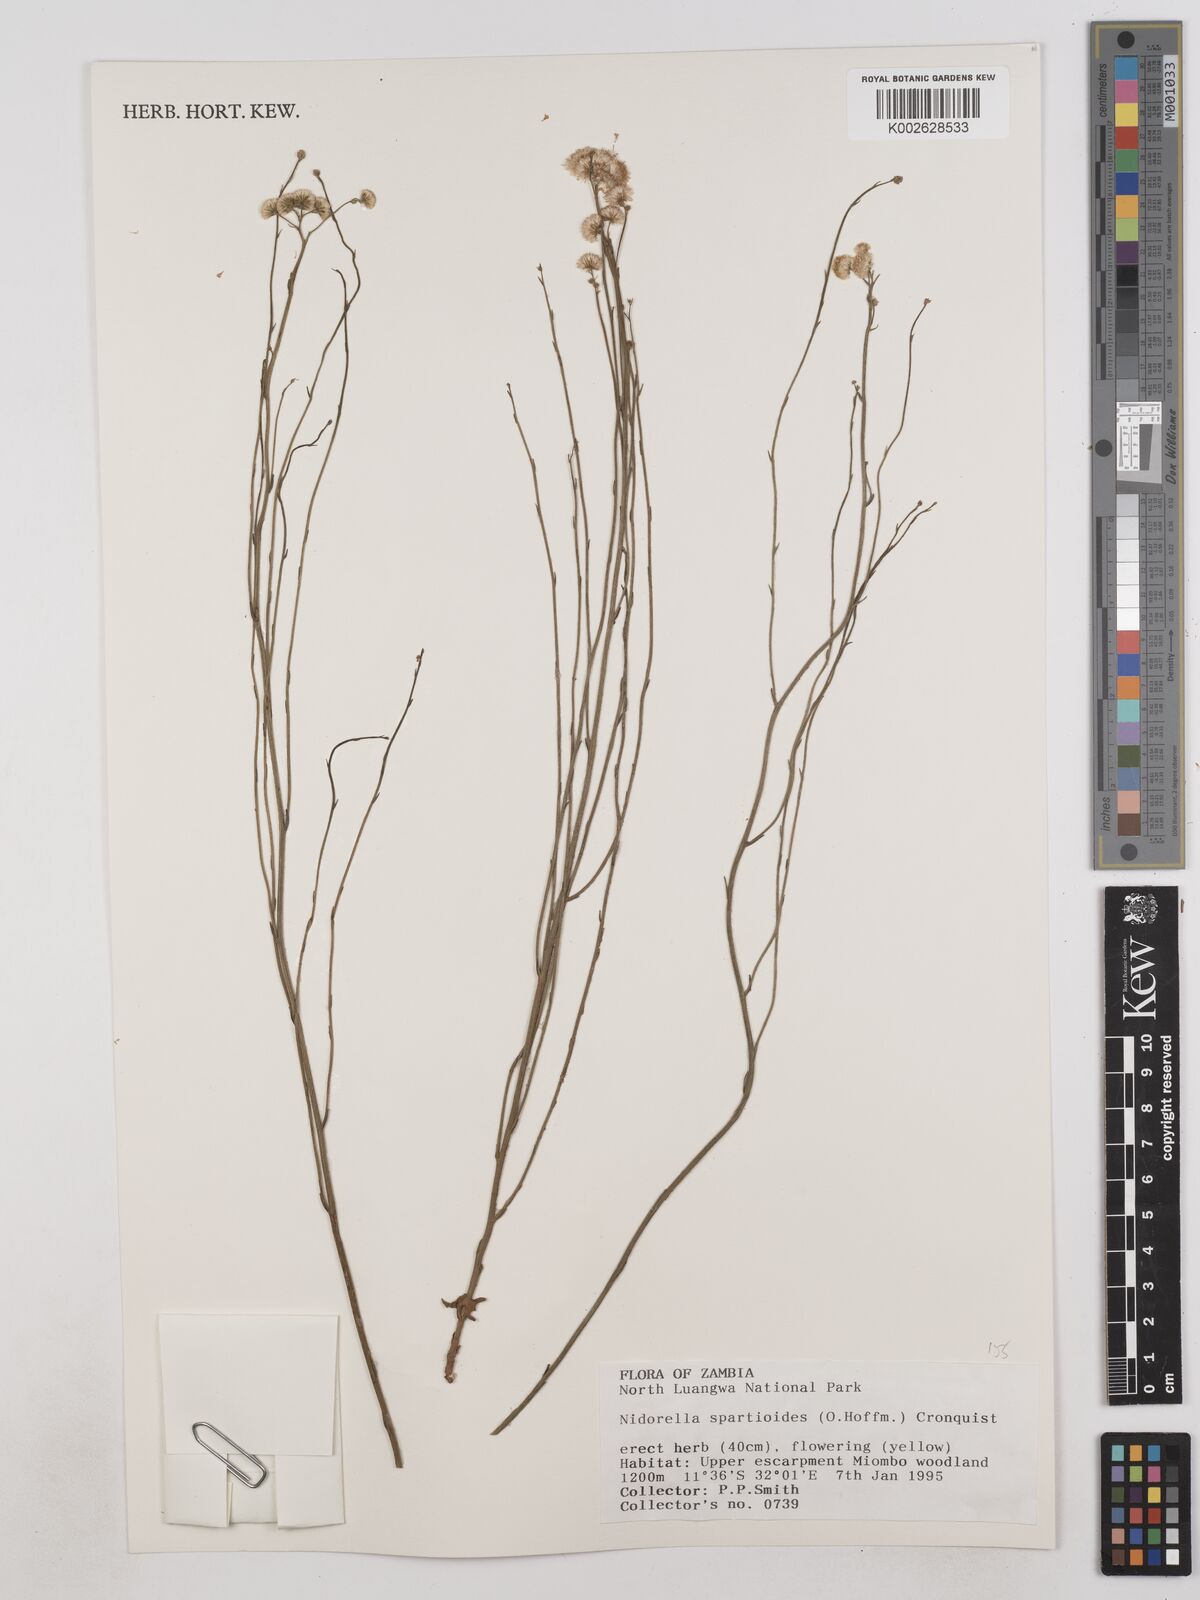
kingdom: Plantae
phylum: Tracheophyta
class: Magnoliopsida
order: Asterales
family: Asteraceae
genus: Nidorella
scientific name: Nidorella spartioides
